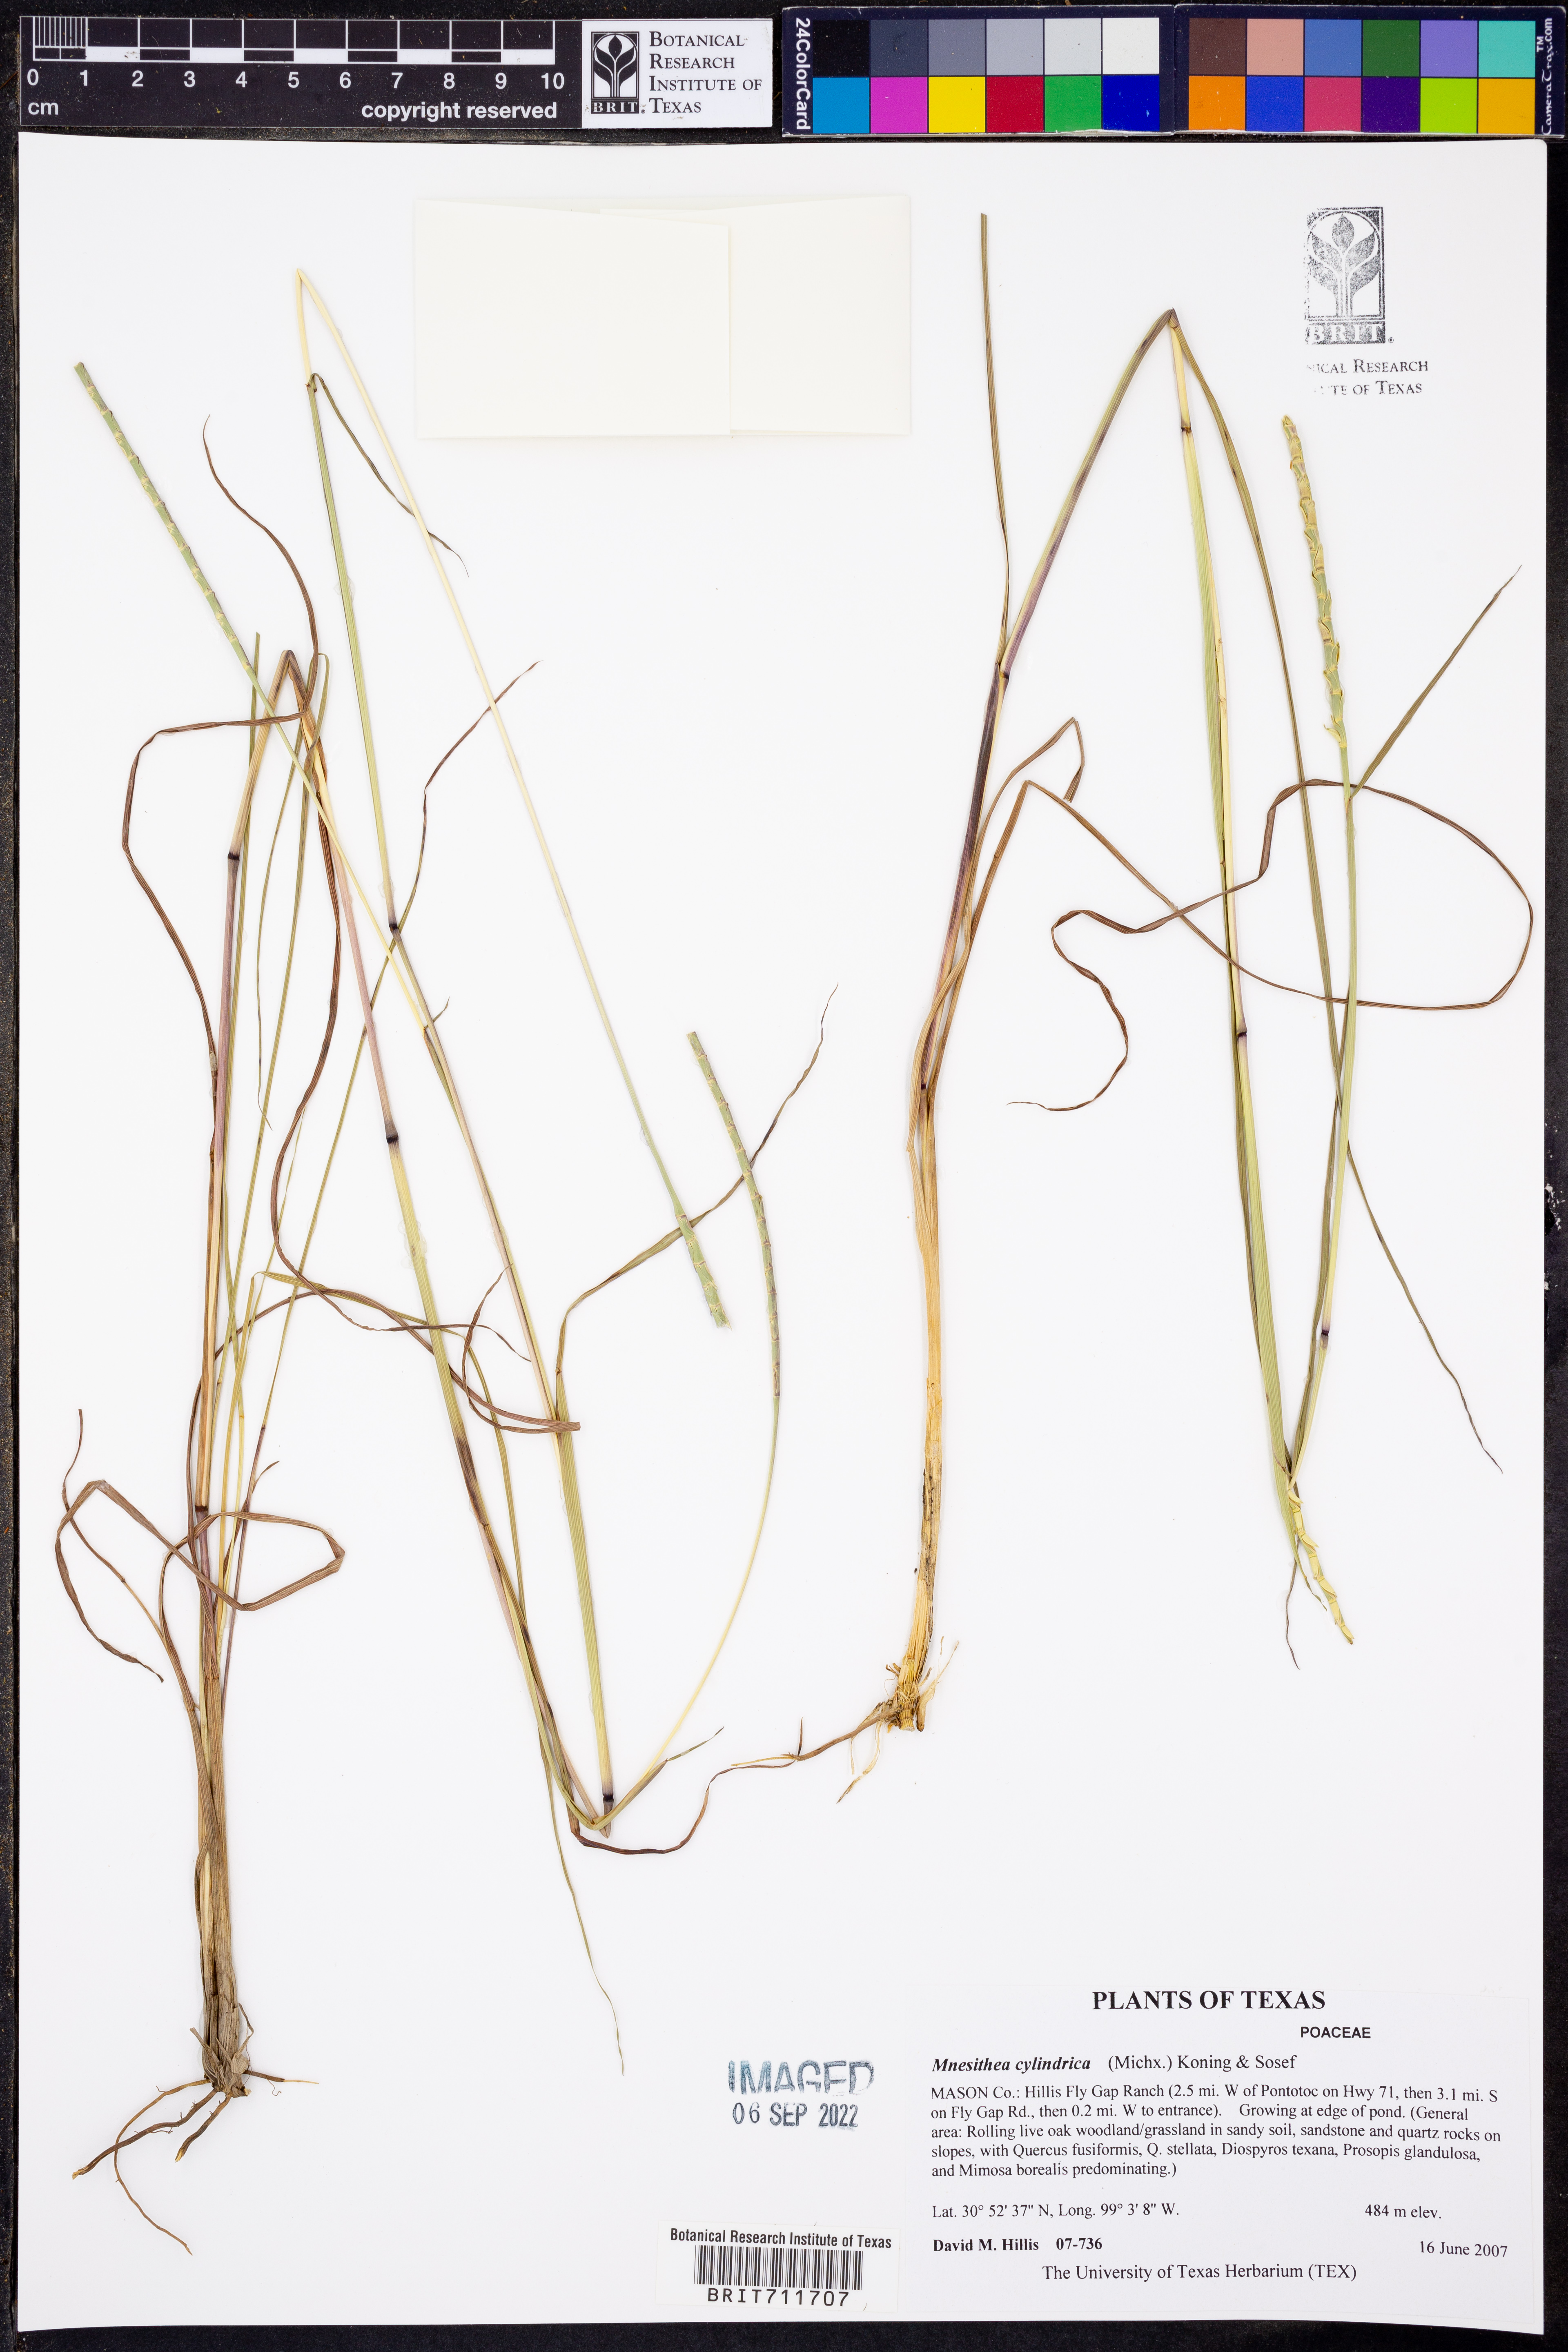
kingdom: Plantae
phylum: Tracheophyta
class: Liliopsida
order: Poales
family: Poaceae
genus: Rottboellia
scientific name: Rottboellia campestris
